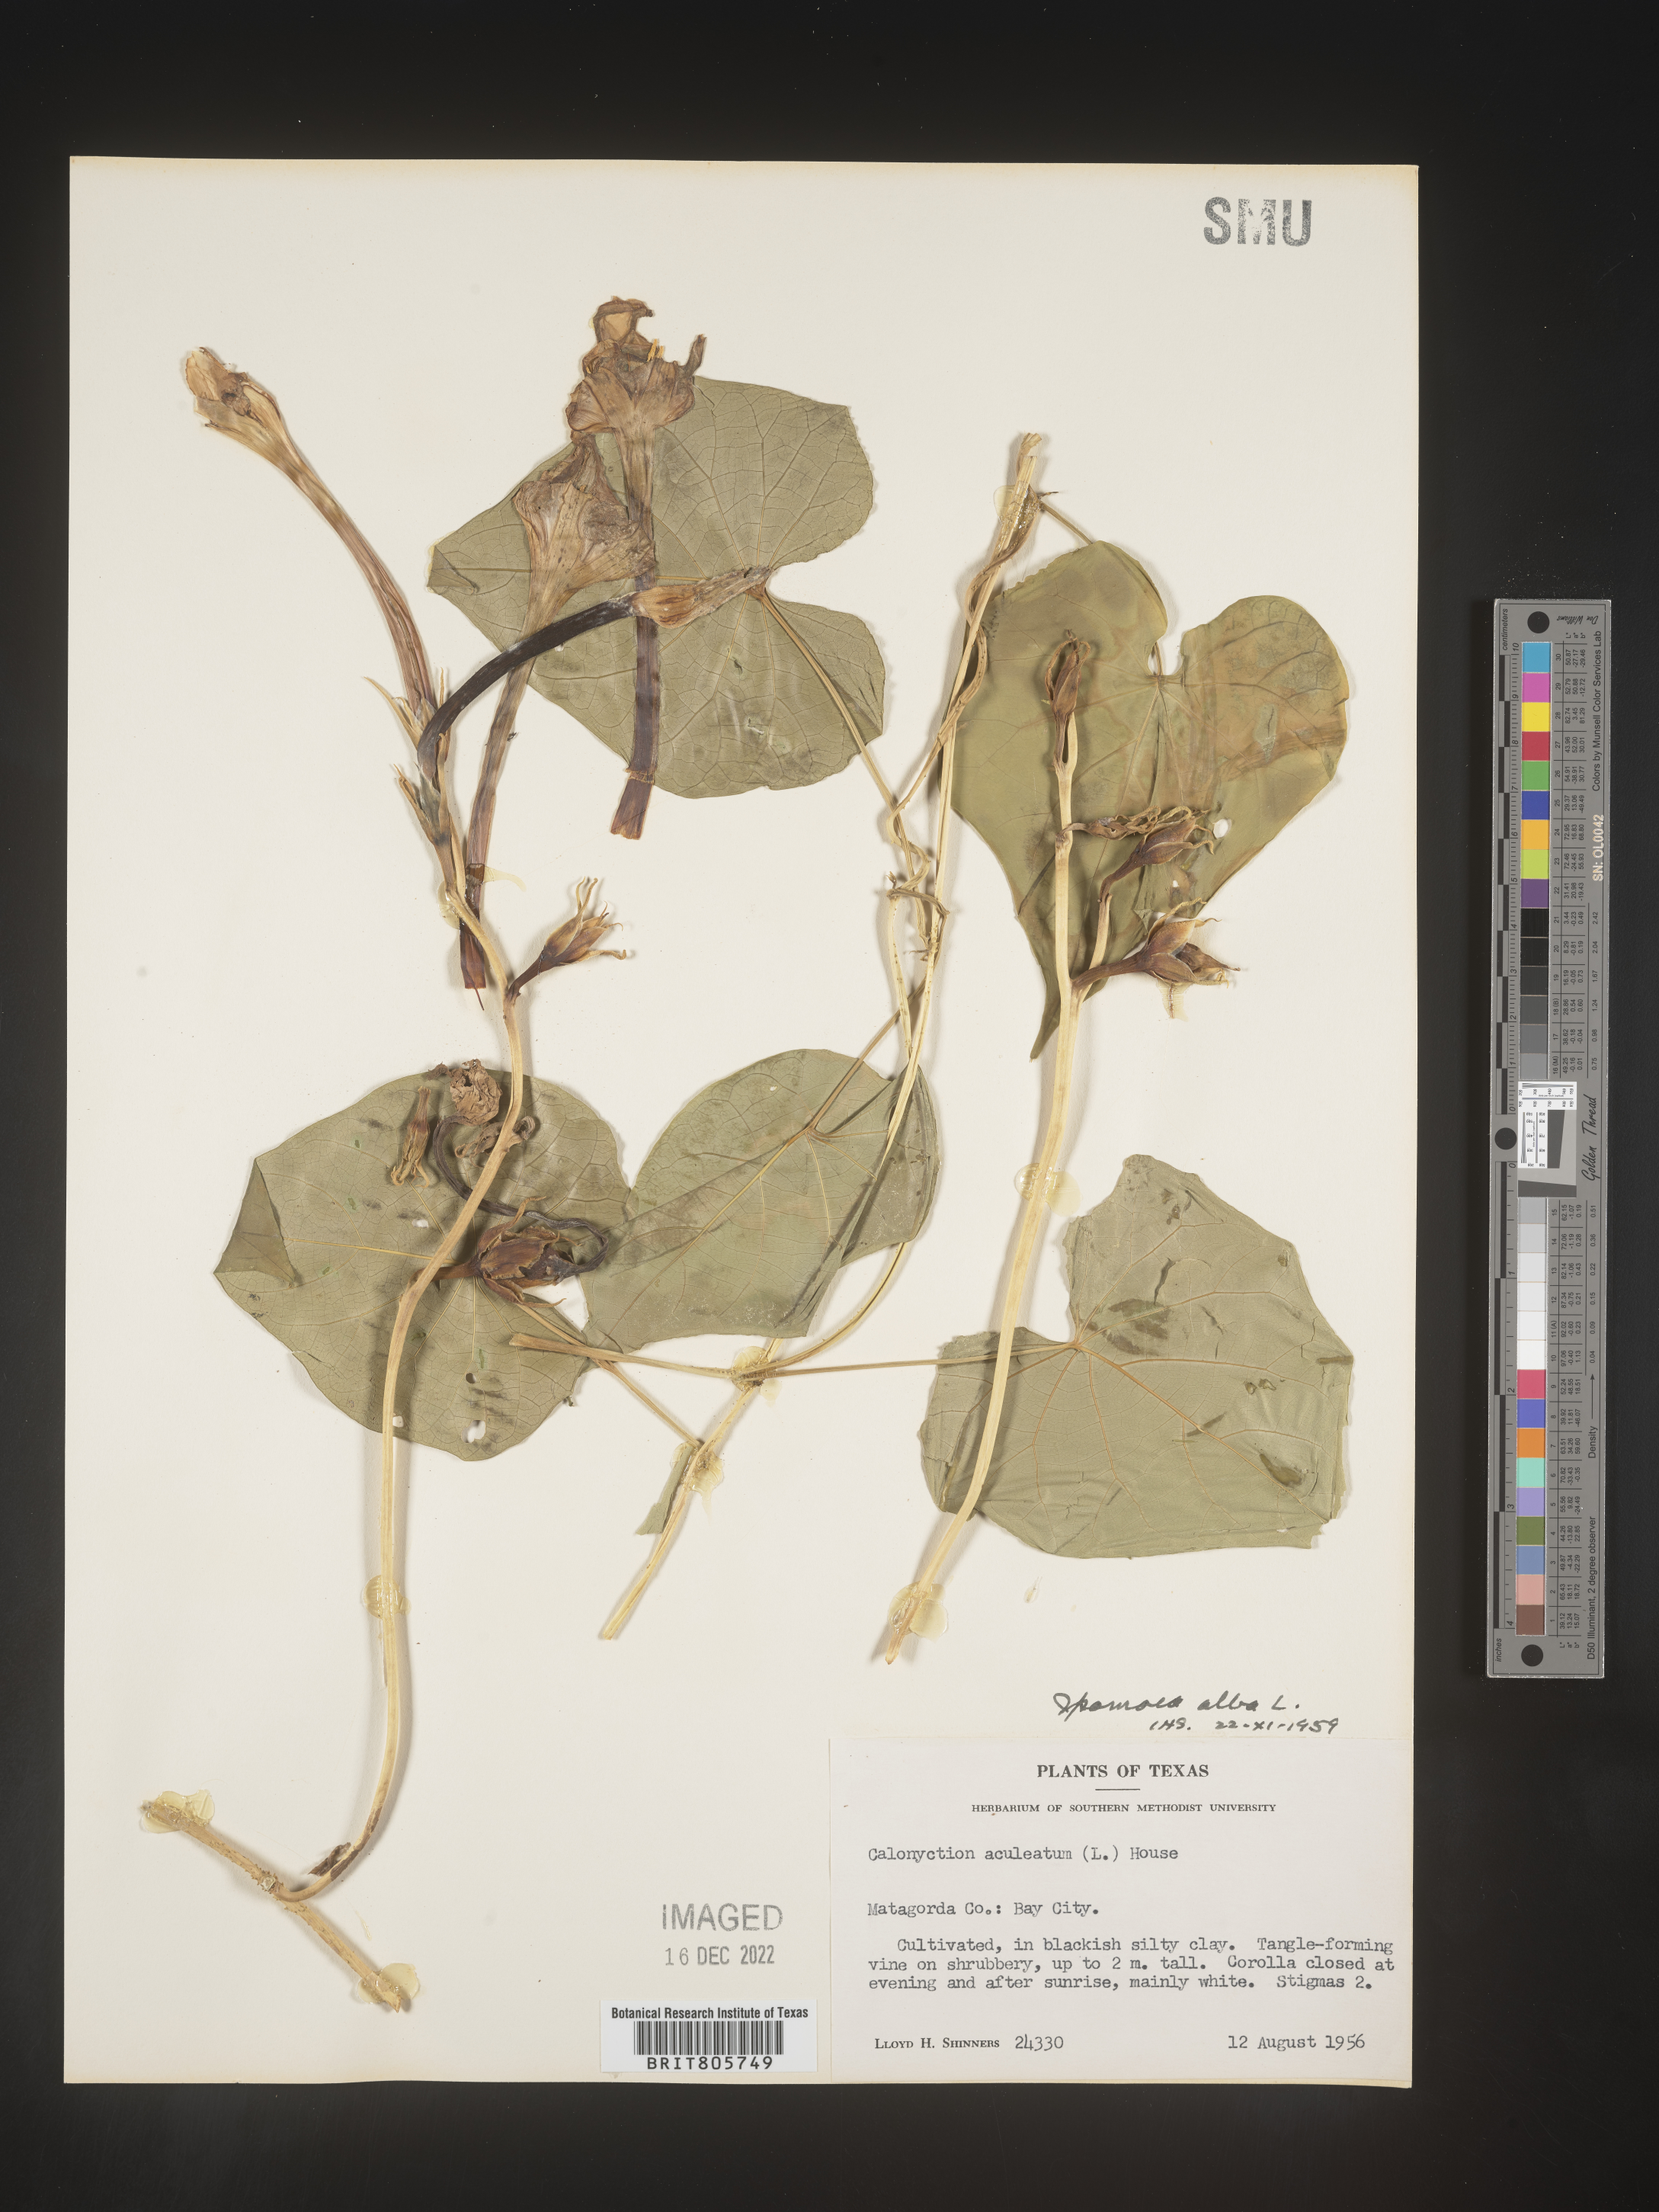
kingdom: Plantae
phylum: Tracheophyta
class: Magnoliopsida
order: Solanales
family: Convolvulaceae
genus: Ipomoea
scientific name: Ipomoea alba
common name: Moonflower
